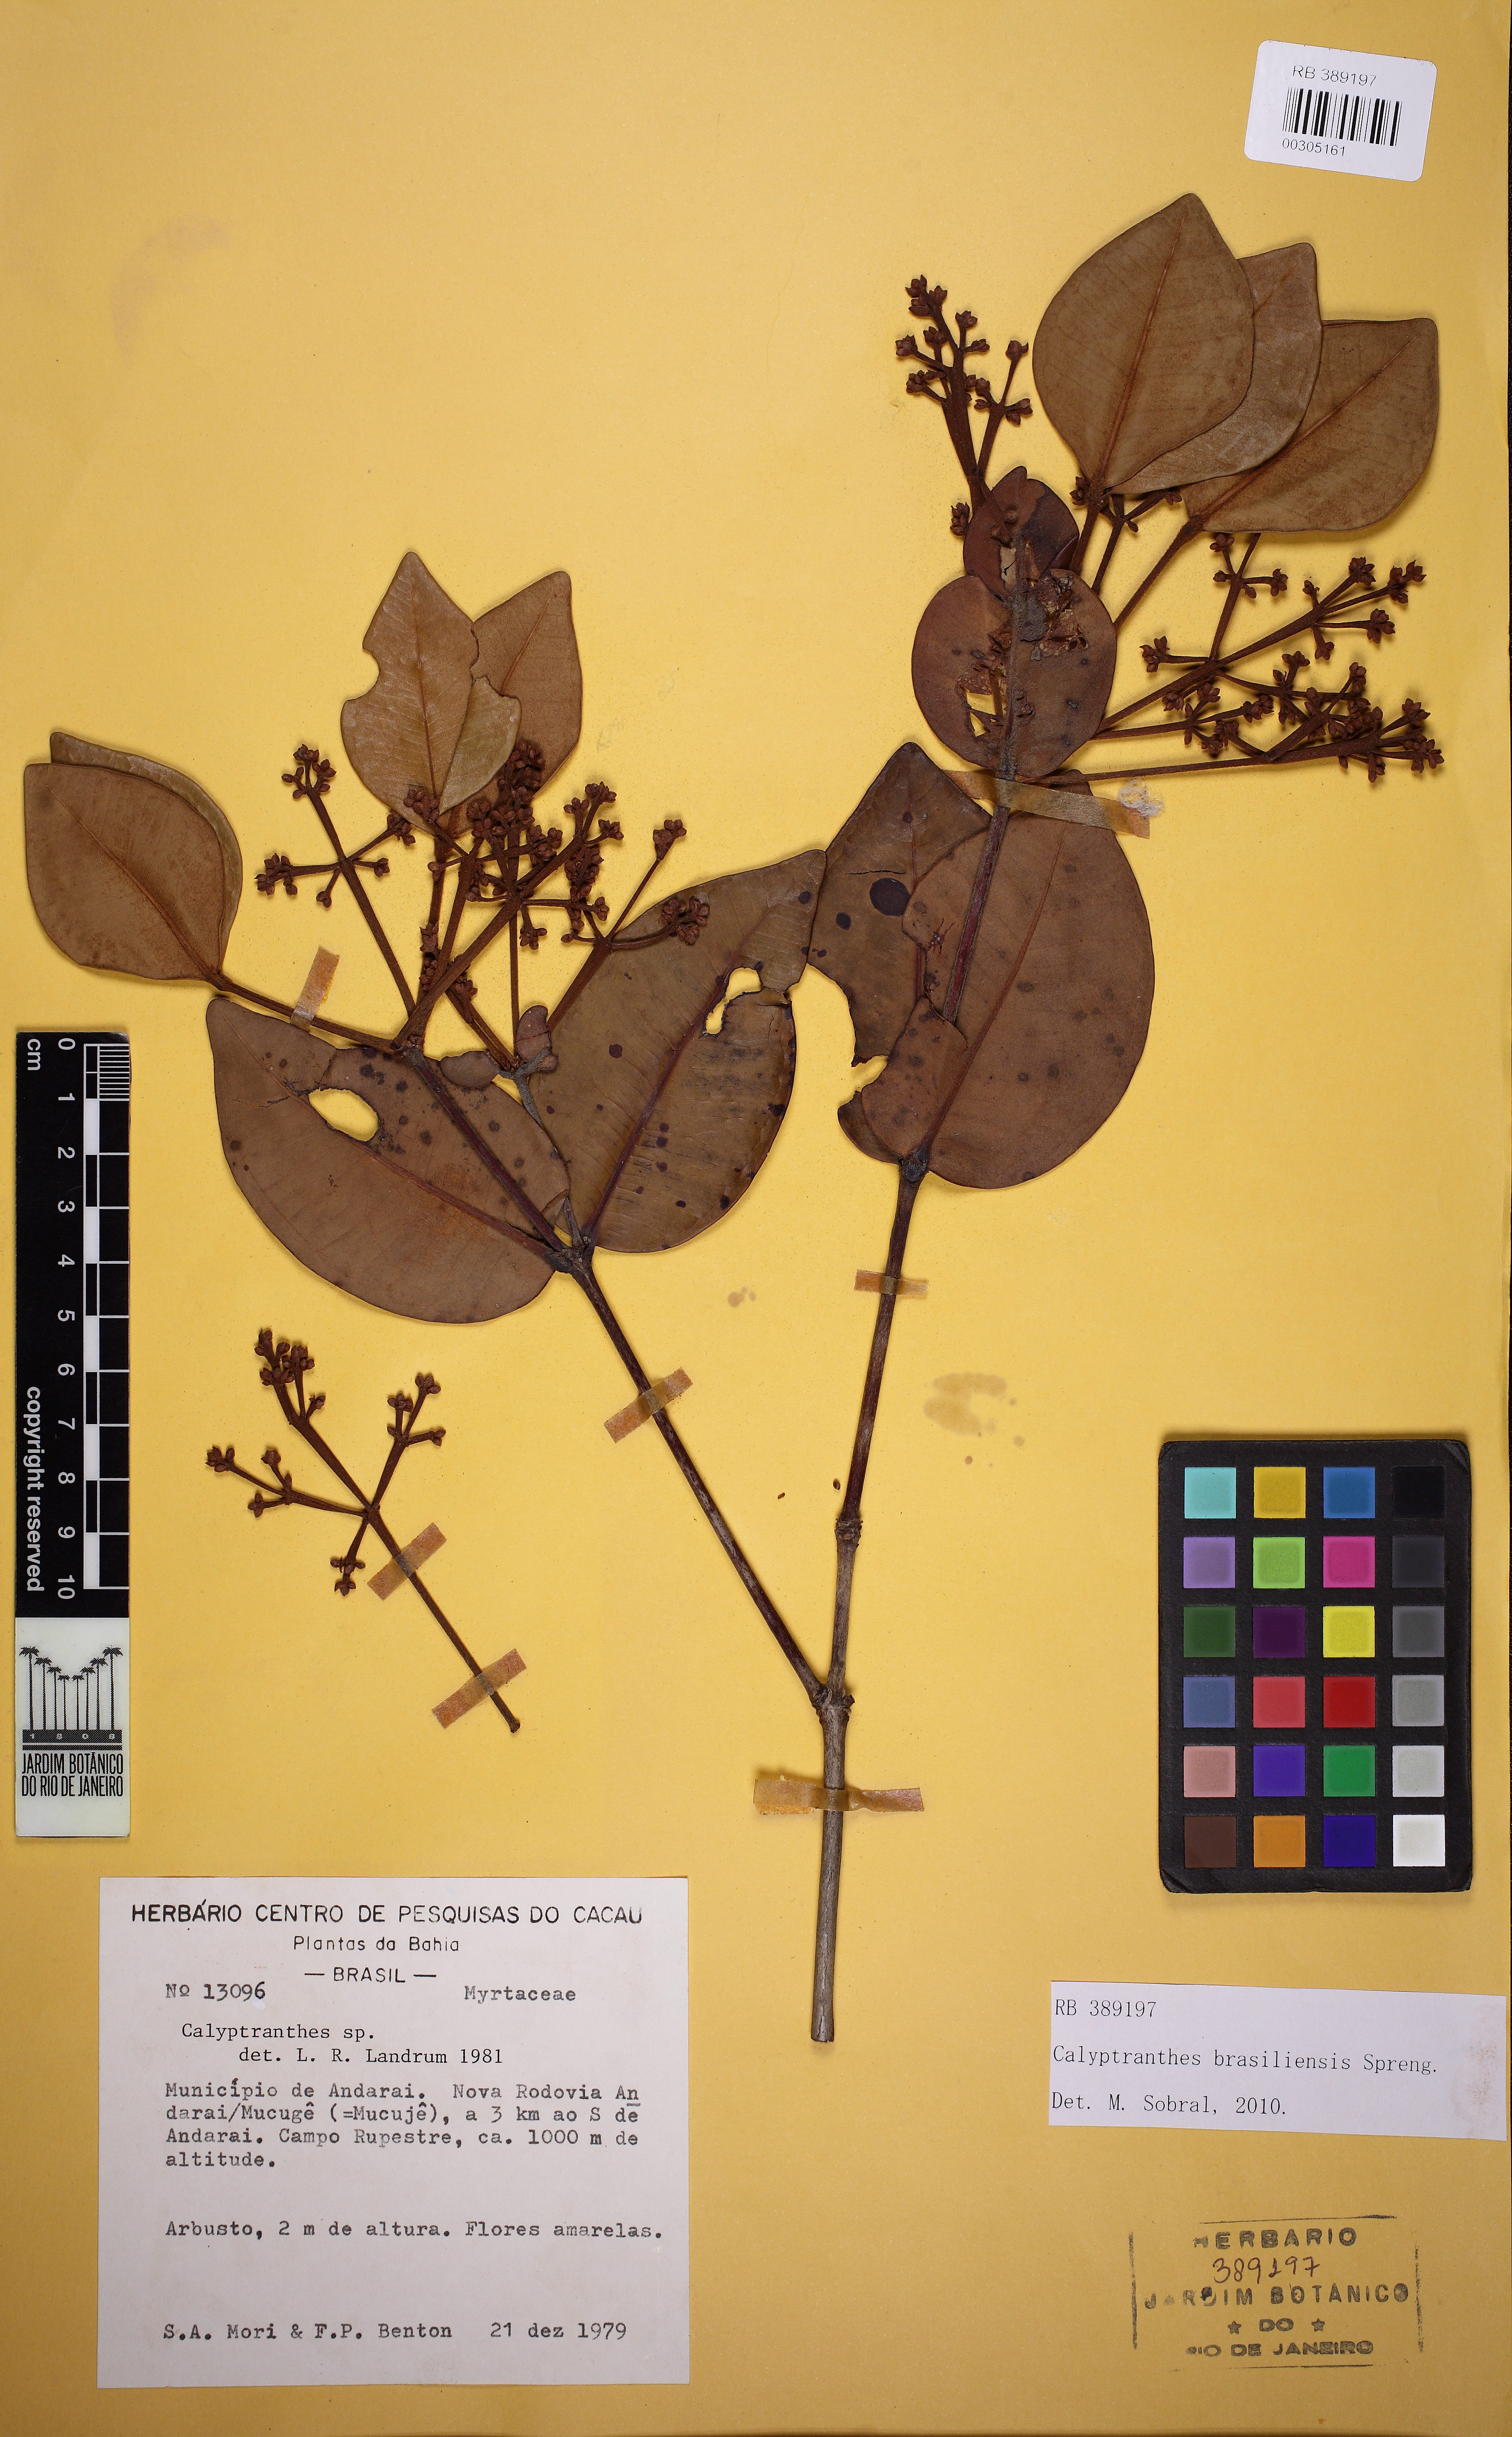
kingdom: Plantae
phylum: Tracheophyta
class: Magnoliopsida
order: Myrtales
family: Myrtaceae
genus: Myrcia
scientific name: Myrcia neobrasiliensis
